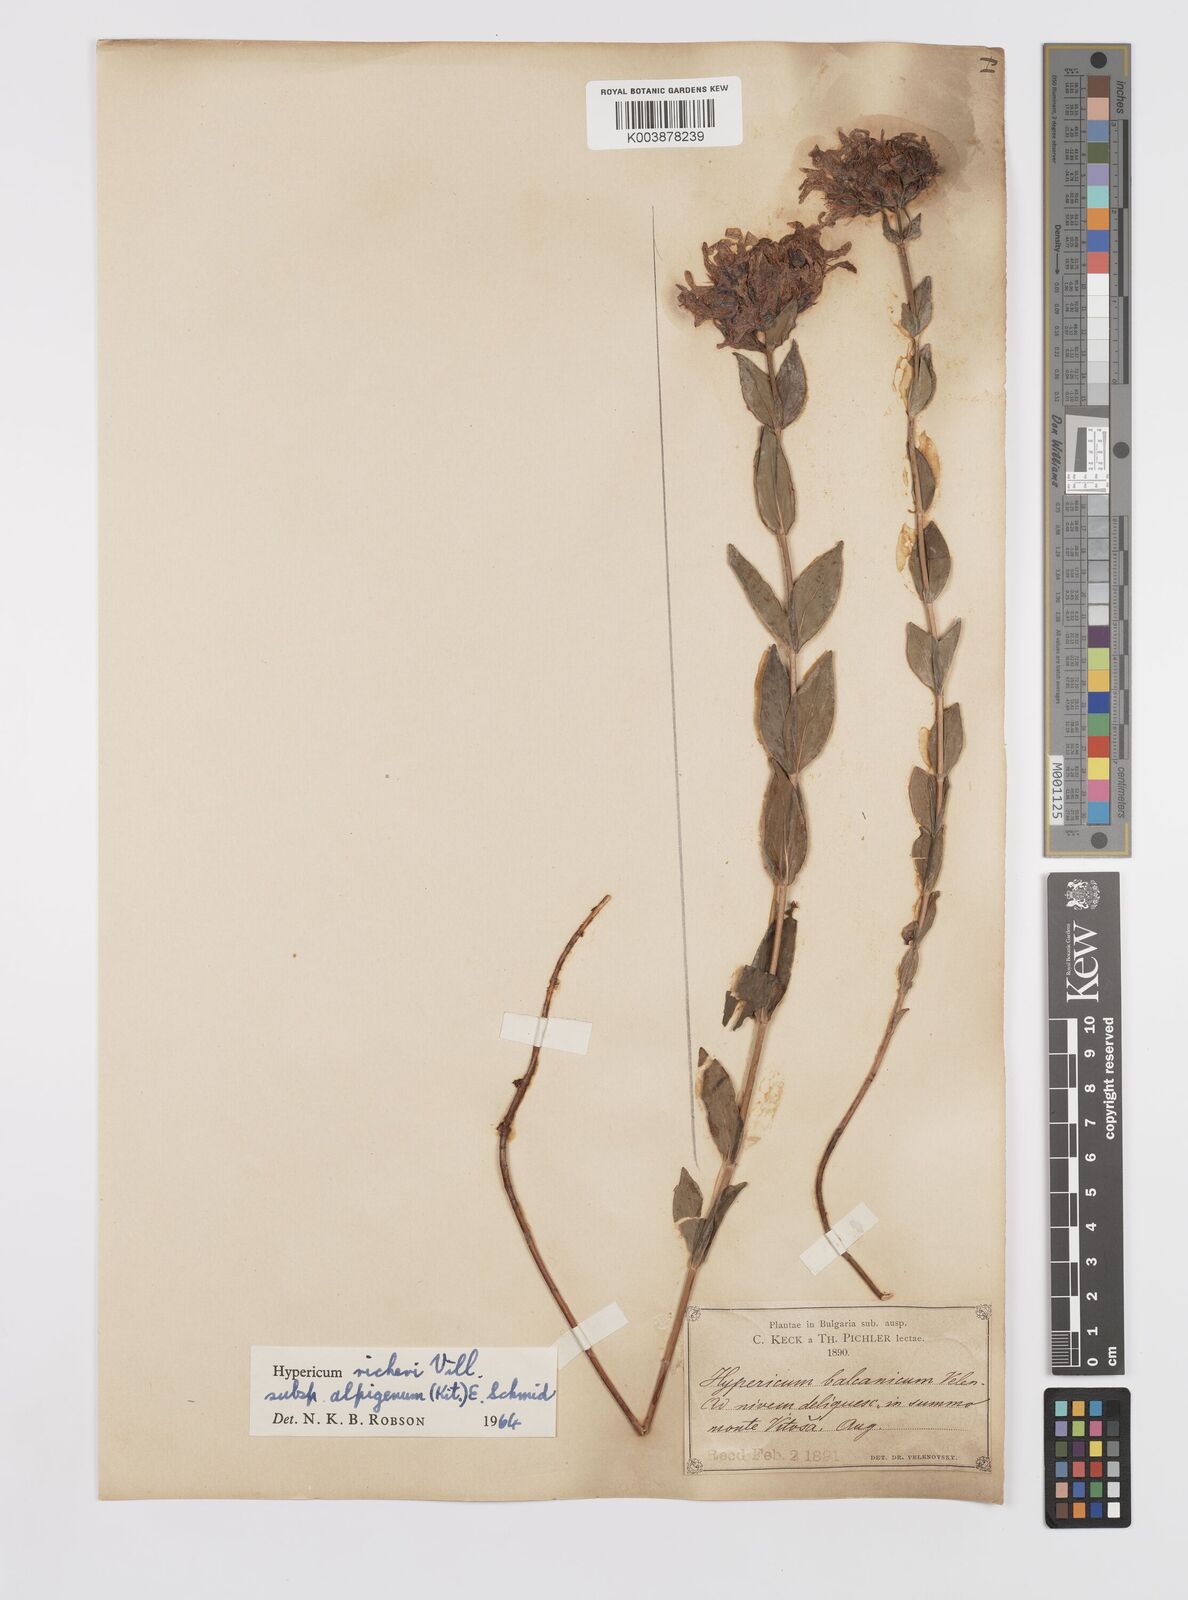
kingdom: Plantae
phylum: Tracheophyta
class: Magnoliopsida
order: Malpighiales
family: Hypericaceae
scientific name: Hypericaceae
